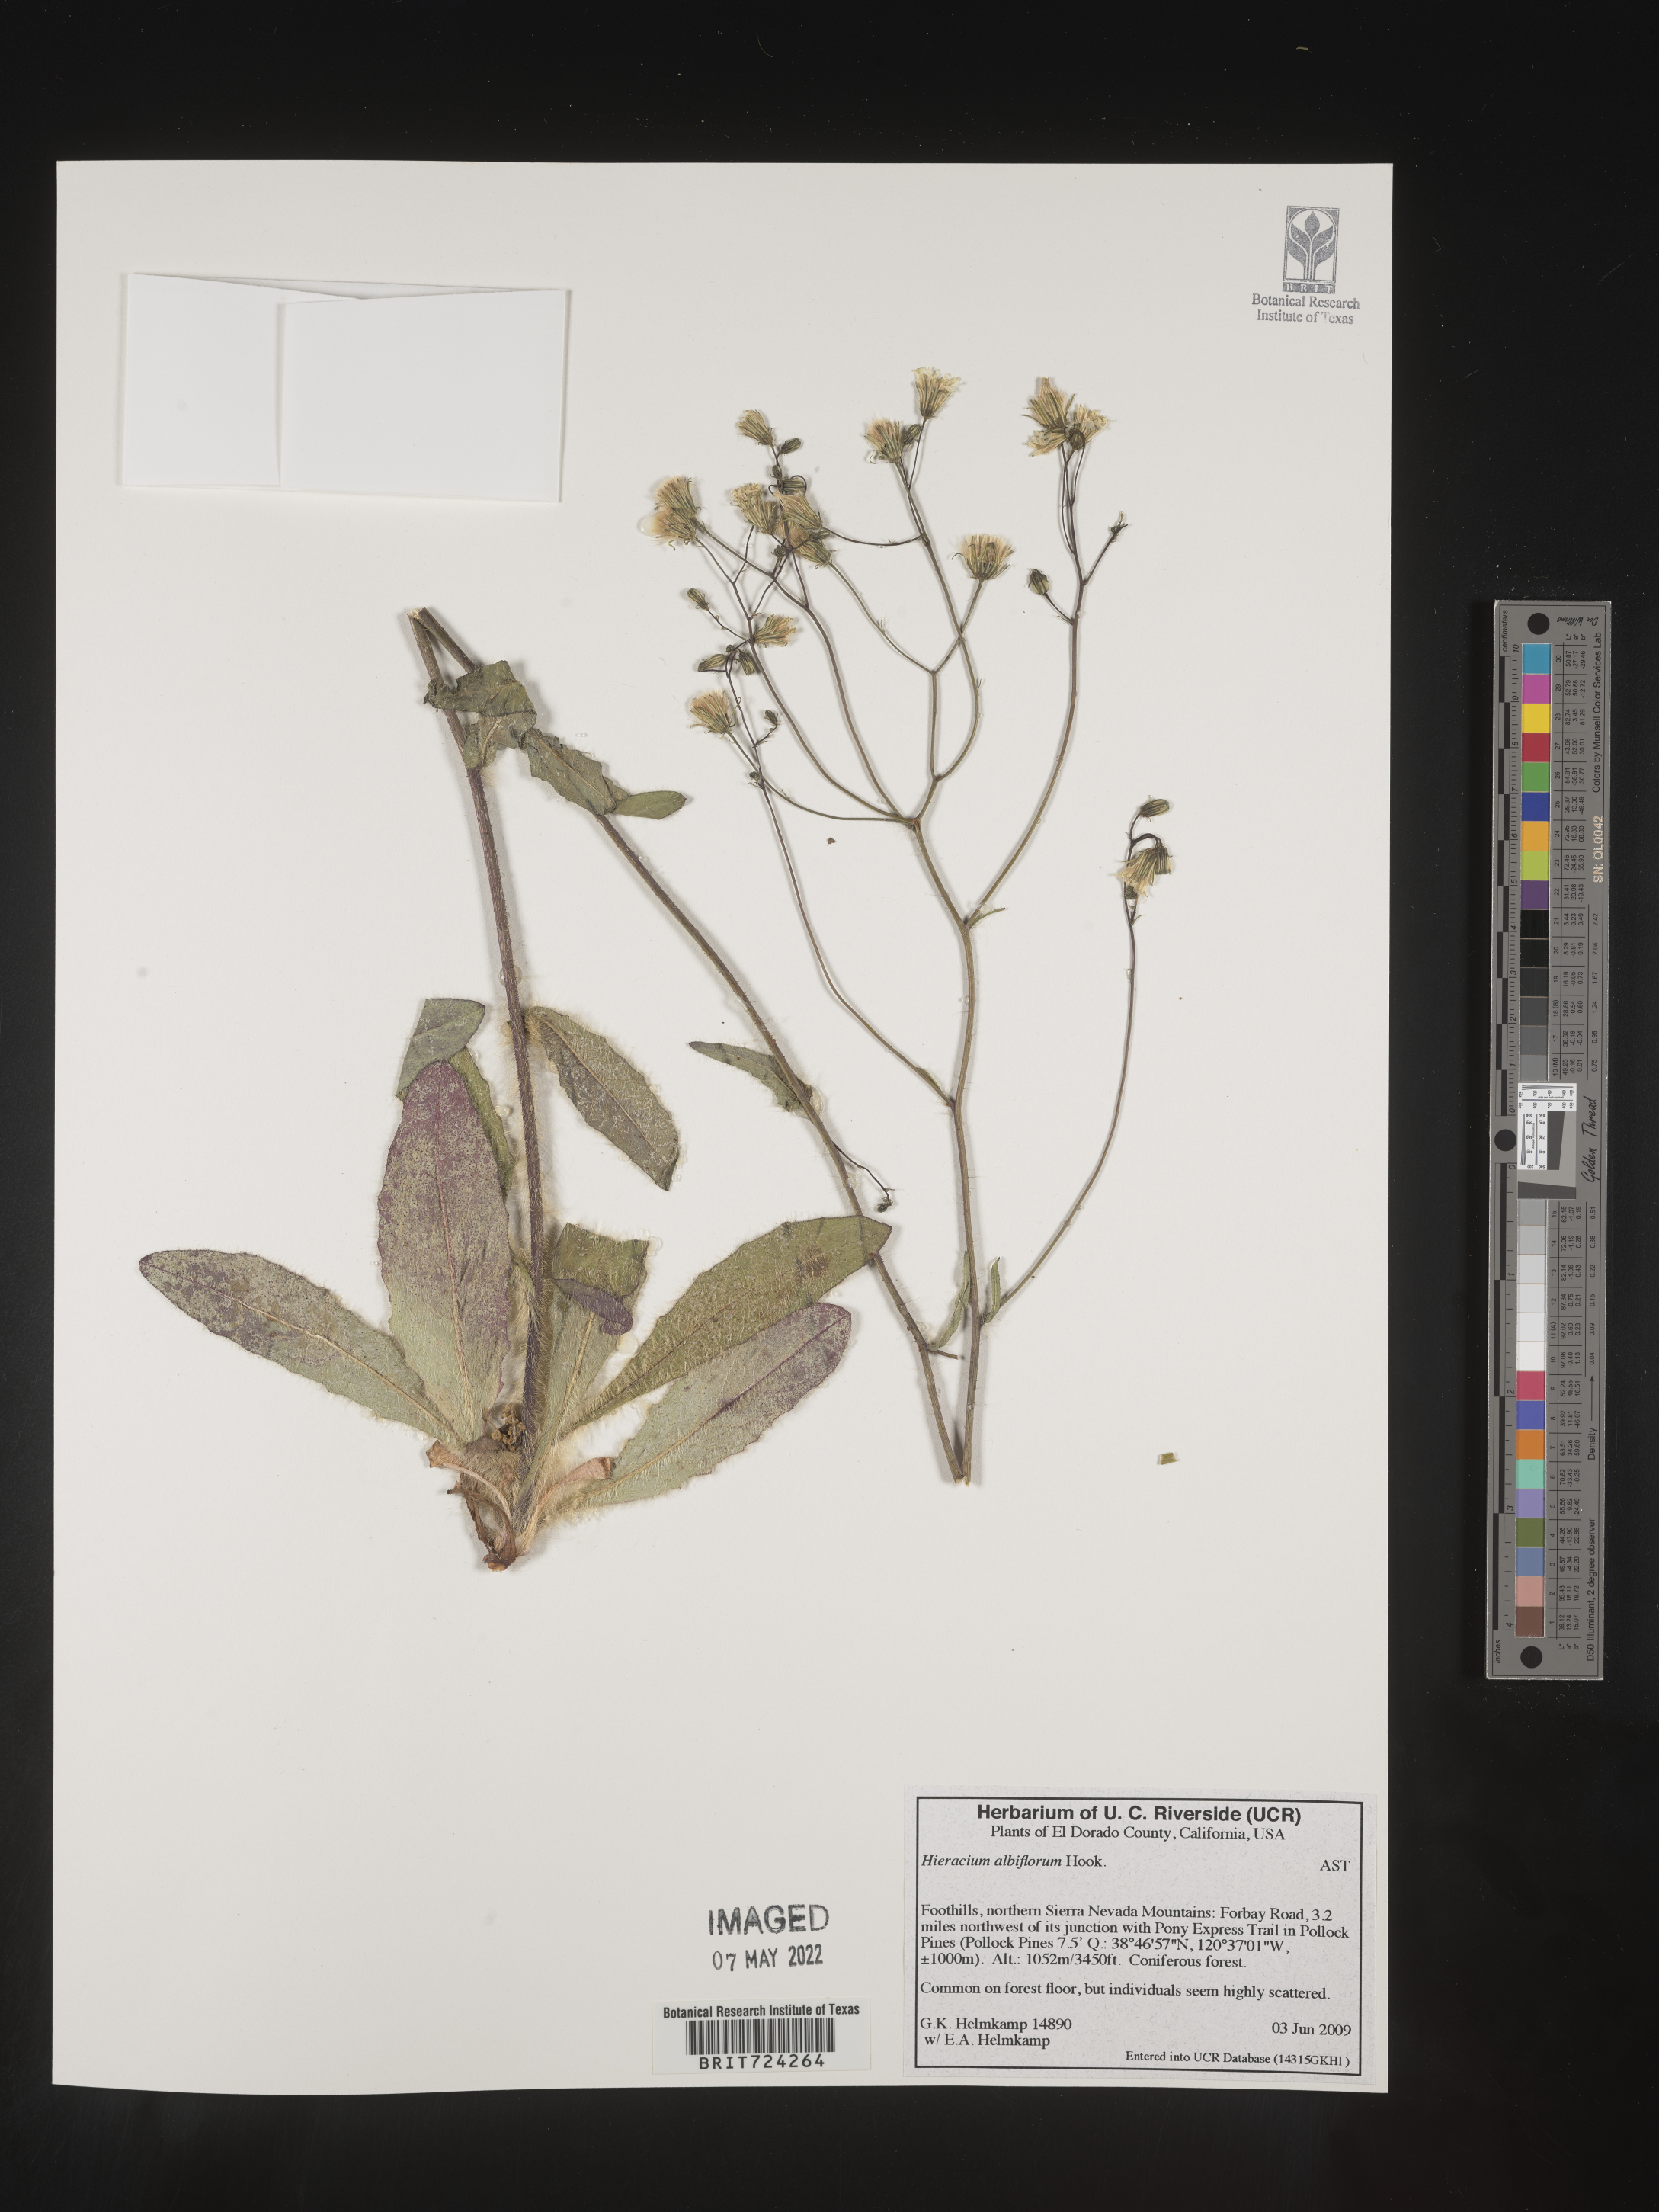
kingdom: Plantae
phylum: Tracheophyta
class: Magnoliopsida
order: Asterales
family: Asteraceae
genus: Hieracium
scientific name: Hieracium albiflorum
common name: White hawkweed
